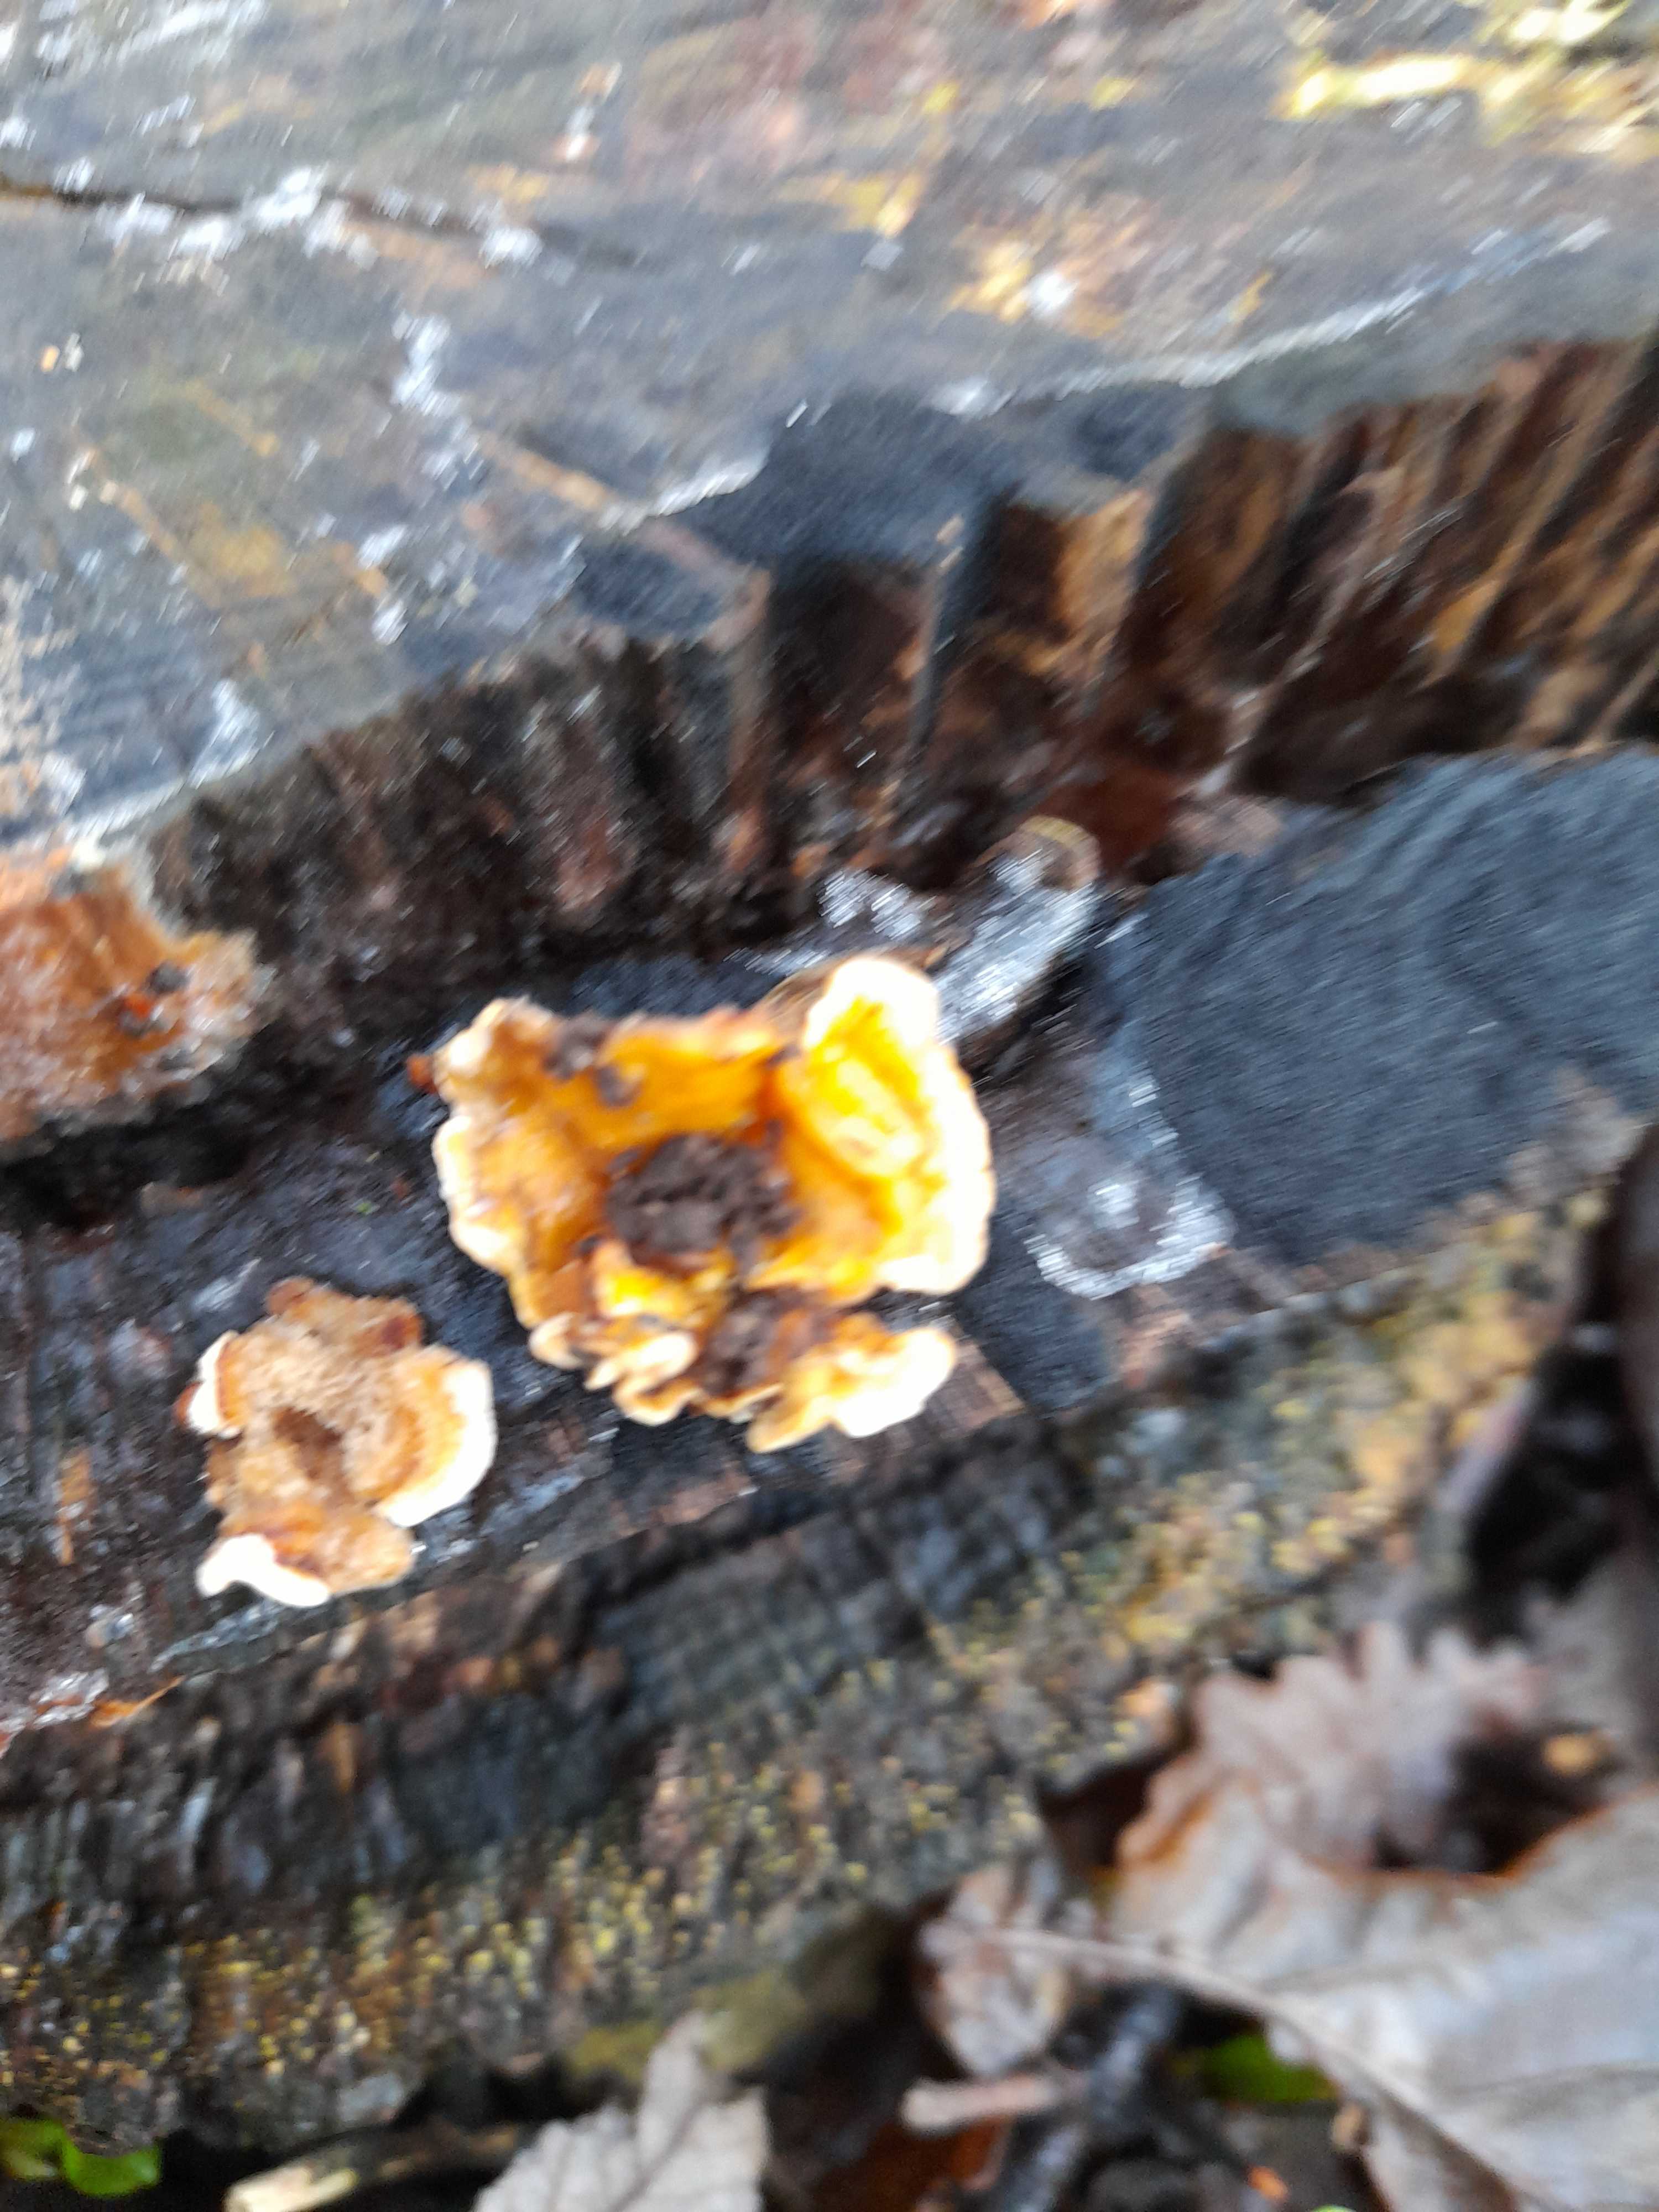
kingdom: Fungi
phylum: Basidiomycota
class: Agaricomycetes
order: Russulales
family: Stereaceae
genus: Stereum
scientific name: Stereum hirsutum
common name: håret lædersvamp
